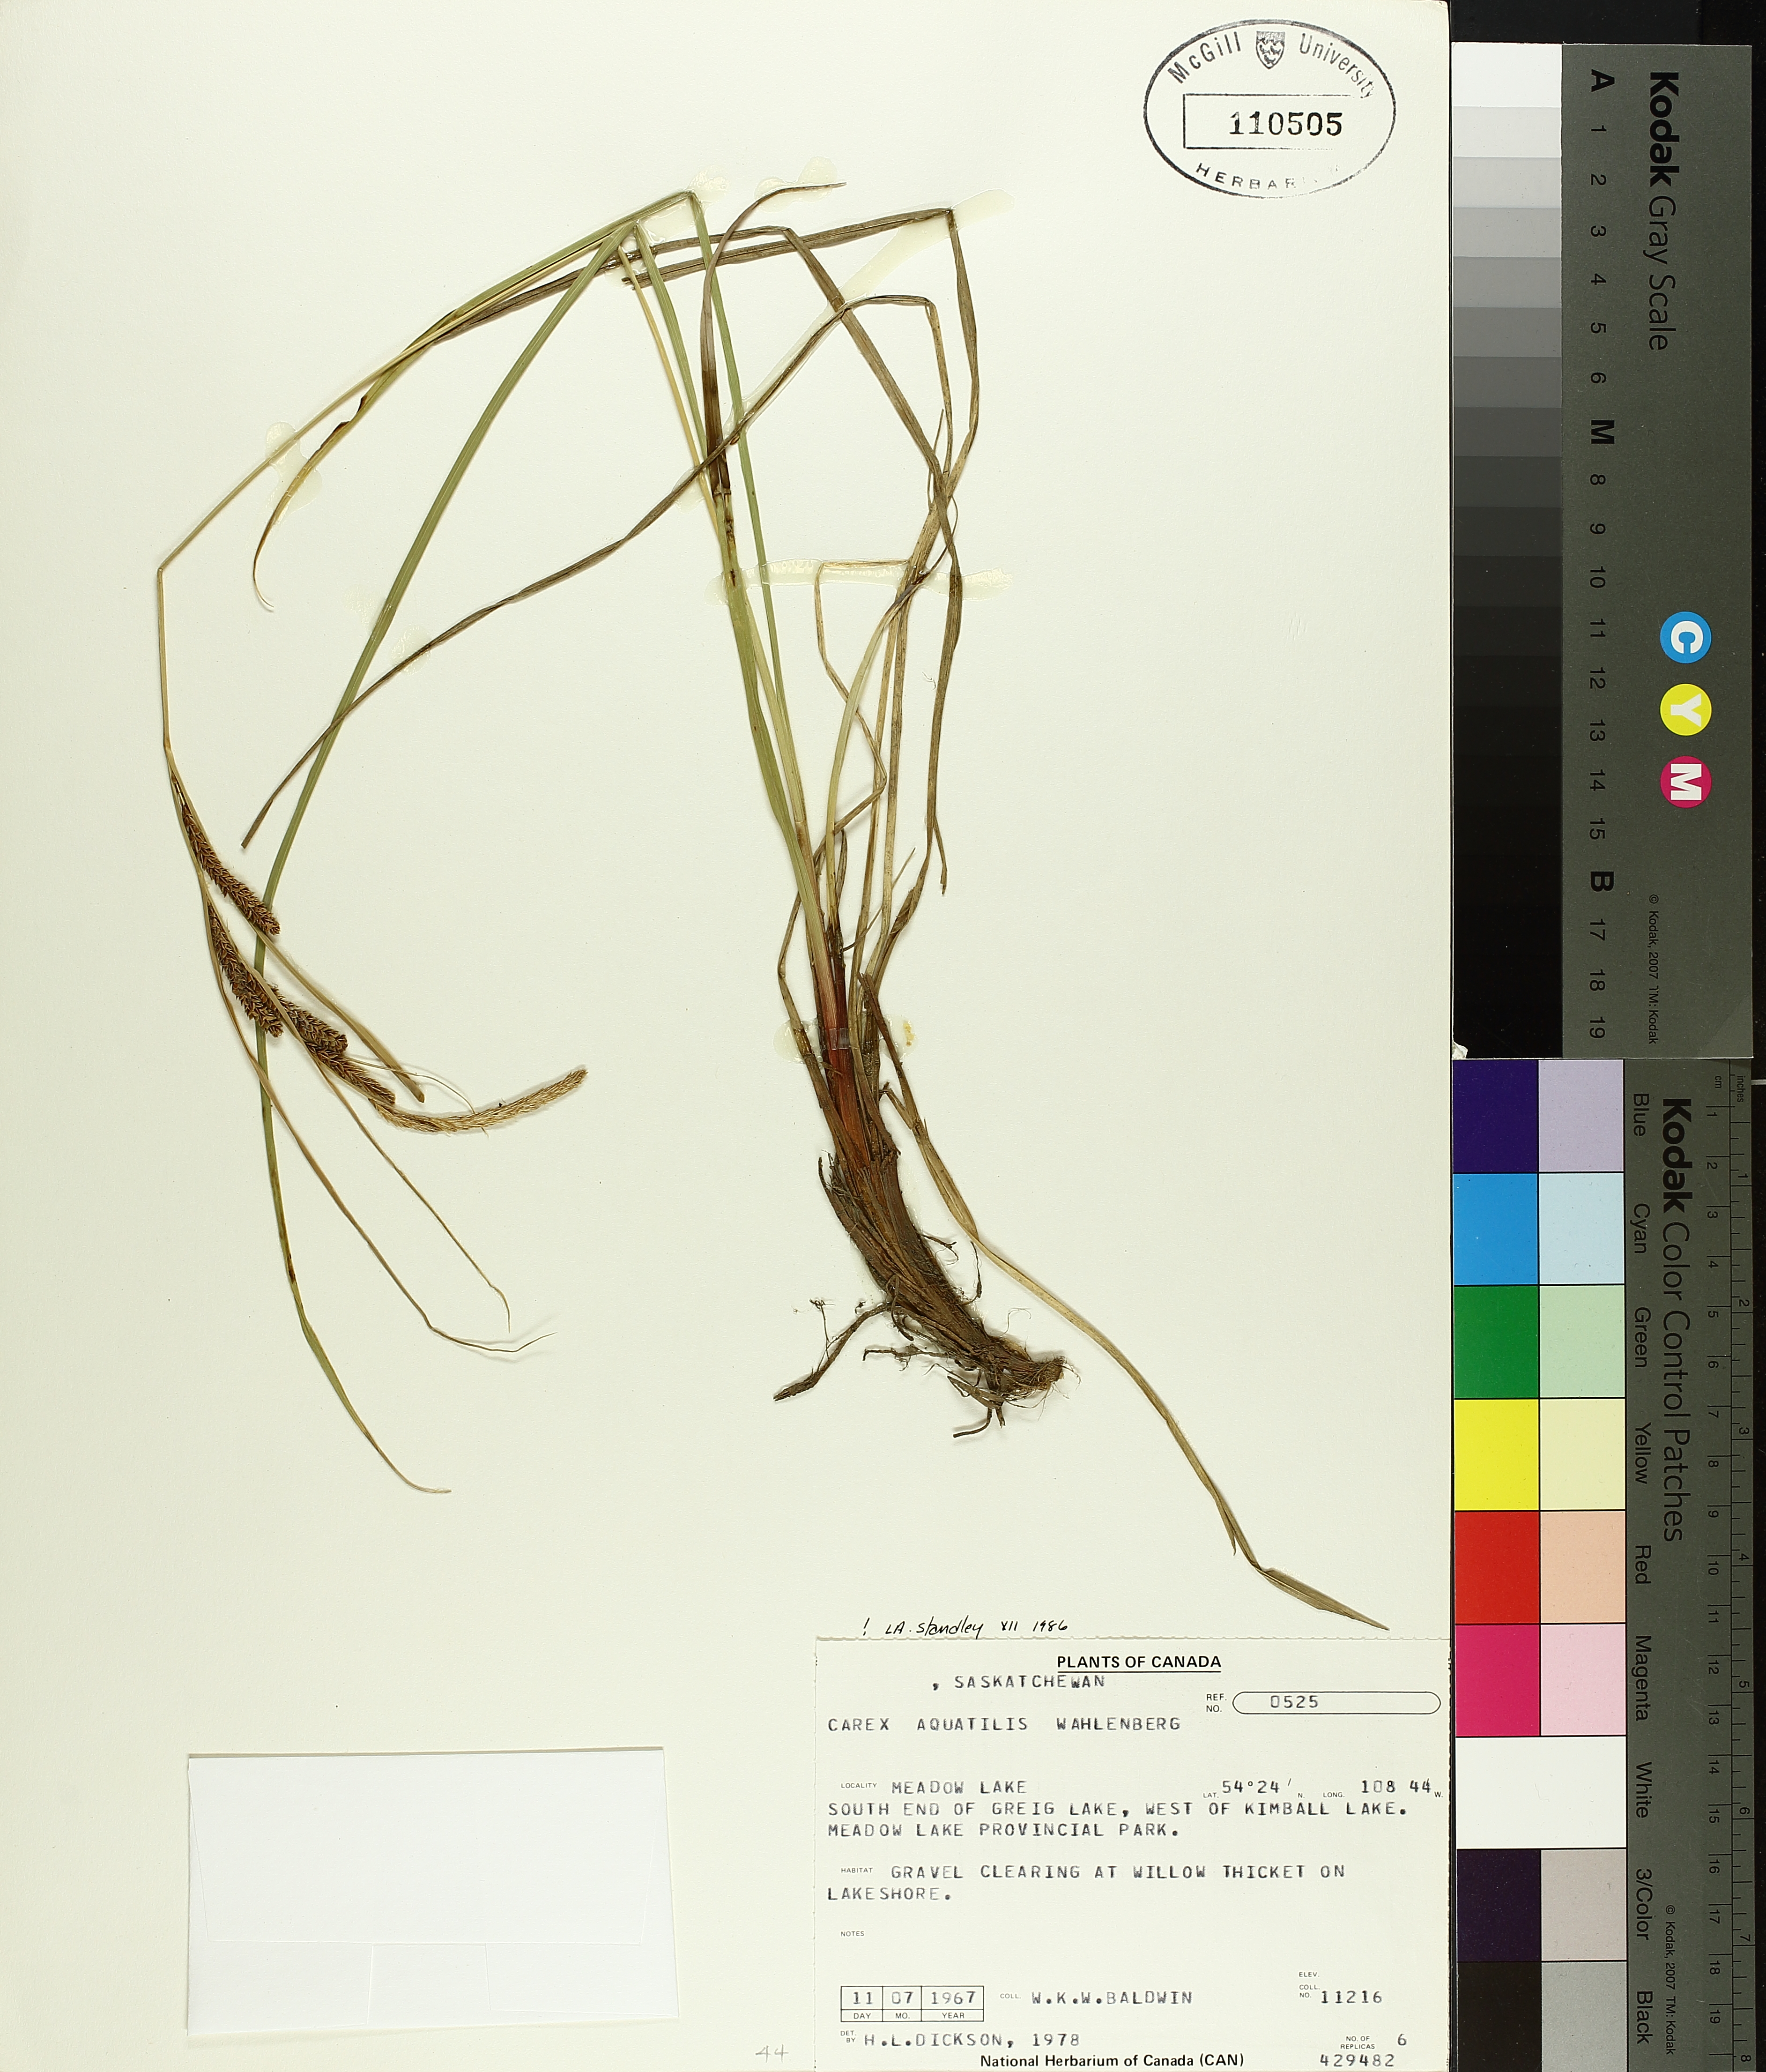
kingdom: Plantae
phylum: Tracheophyta
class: Liliopsida
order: Poales
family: Cyperaceae
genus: Carex
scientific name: Carex aquatilis
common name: Water sedge
